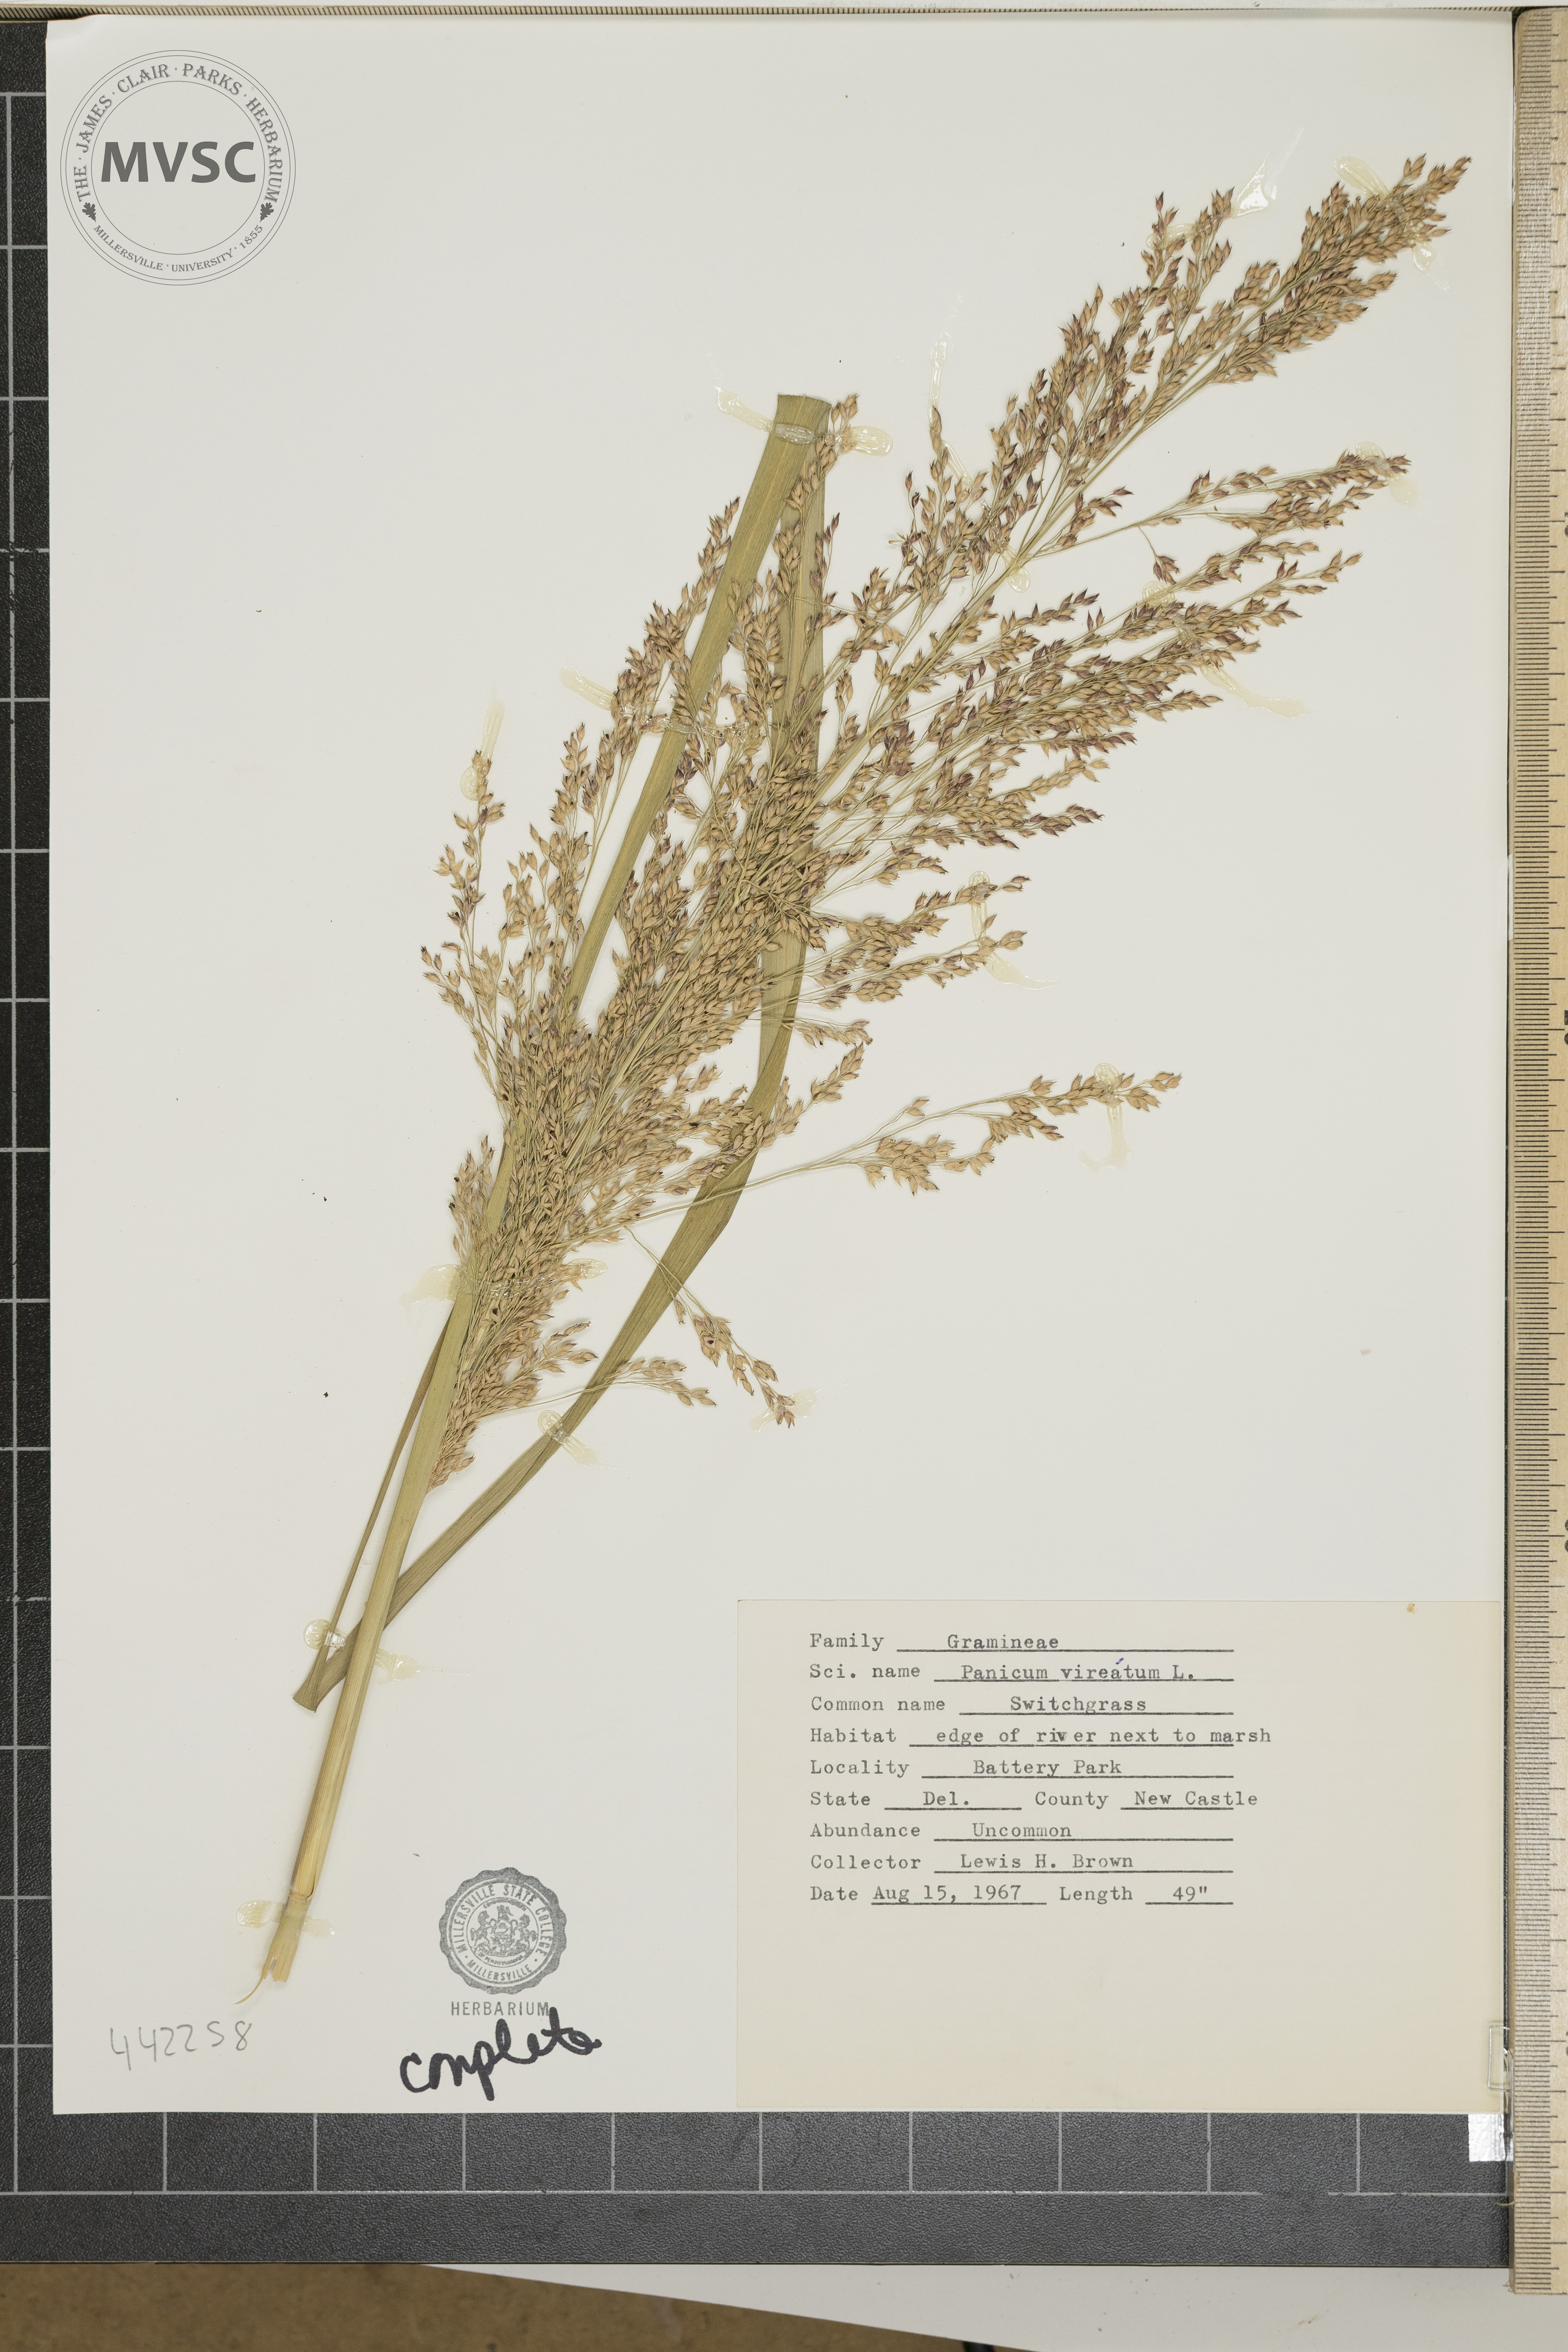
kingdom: Plantae
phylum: Tracheophyta
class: Liliopsida
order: Poales
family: Poaceae
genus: Panicum
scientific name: Panicum virgatum
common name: Switchgrass
